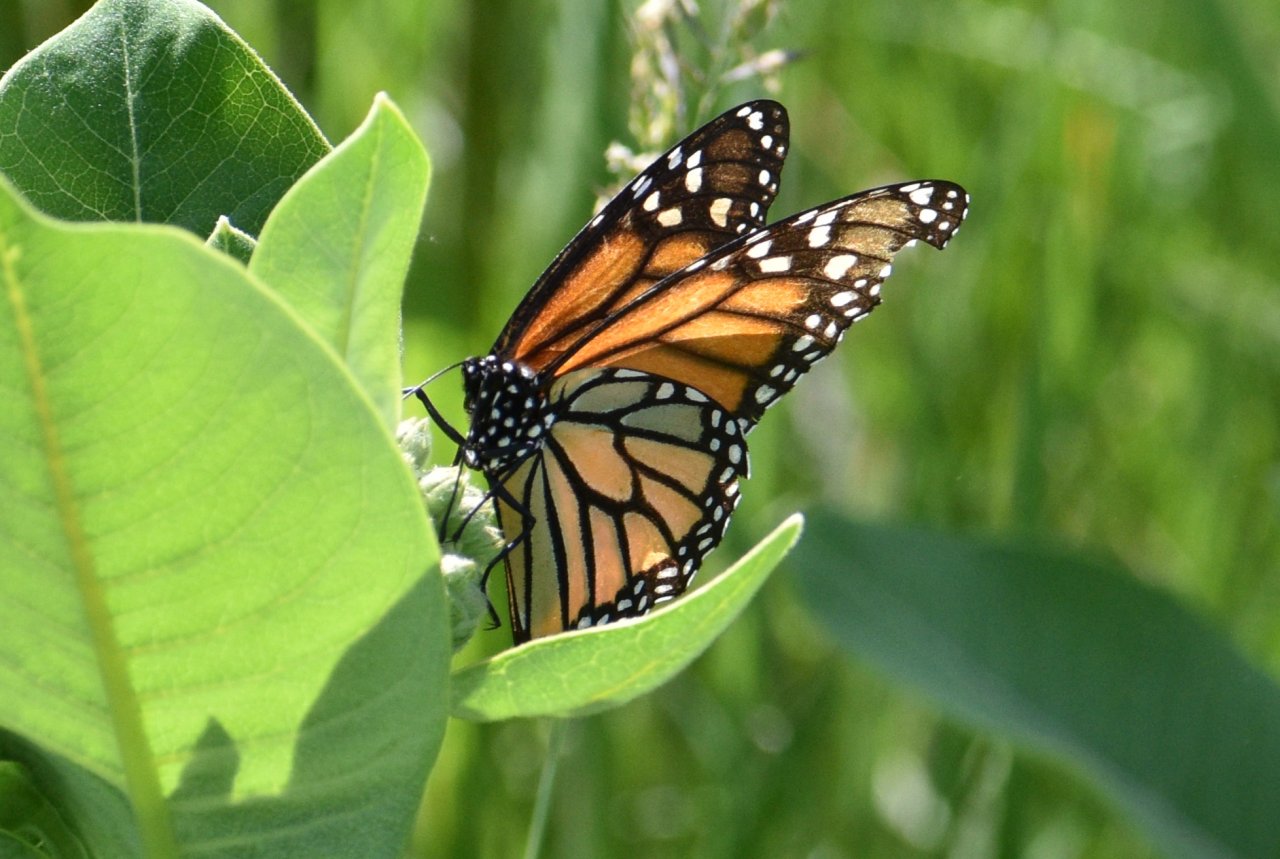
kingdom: Animalia
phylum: Arthropoda
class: Insecta
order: Lepidoptera
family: Nymphalidae
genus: Danaus
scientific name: Danaus plexippus
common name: Monarch
